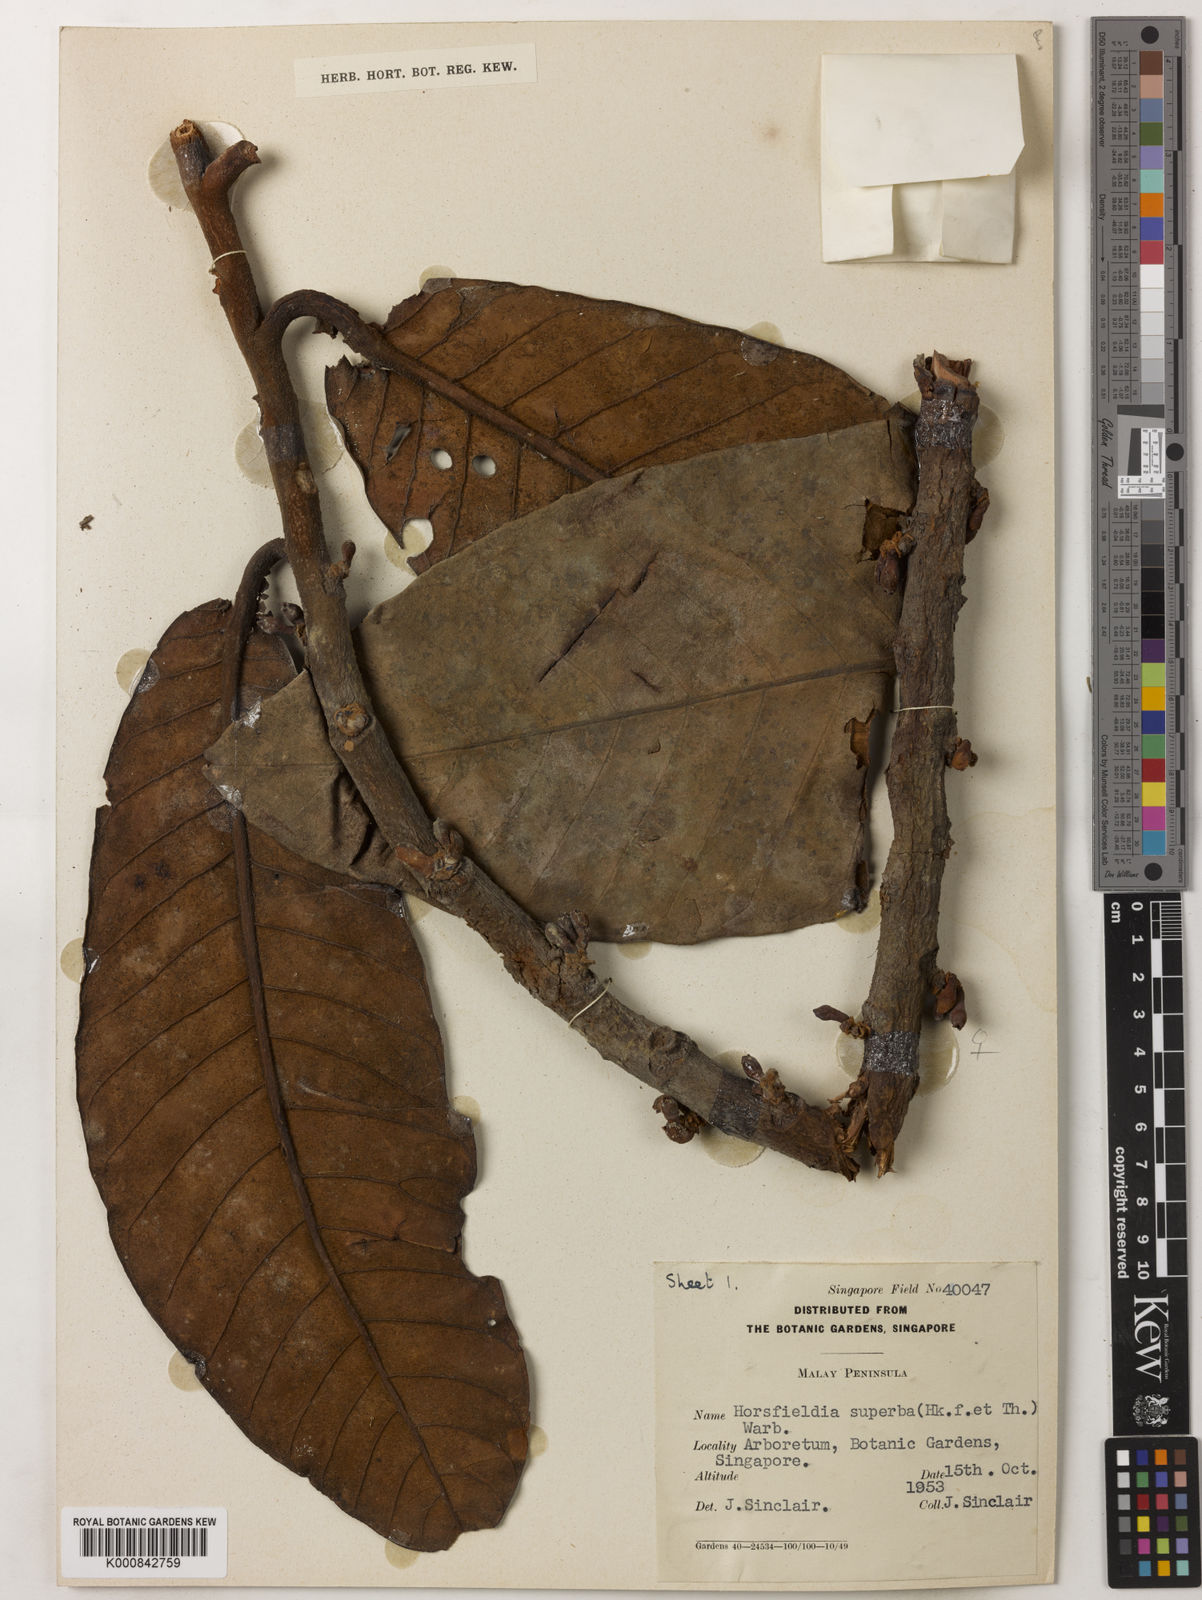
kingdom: Plantae
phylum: Tracheophyta
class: Magnoliopsida
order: Magnoliales
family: Myristicaceae
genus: Horsfieldia
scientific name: Horsfieldia superba
